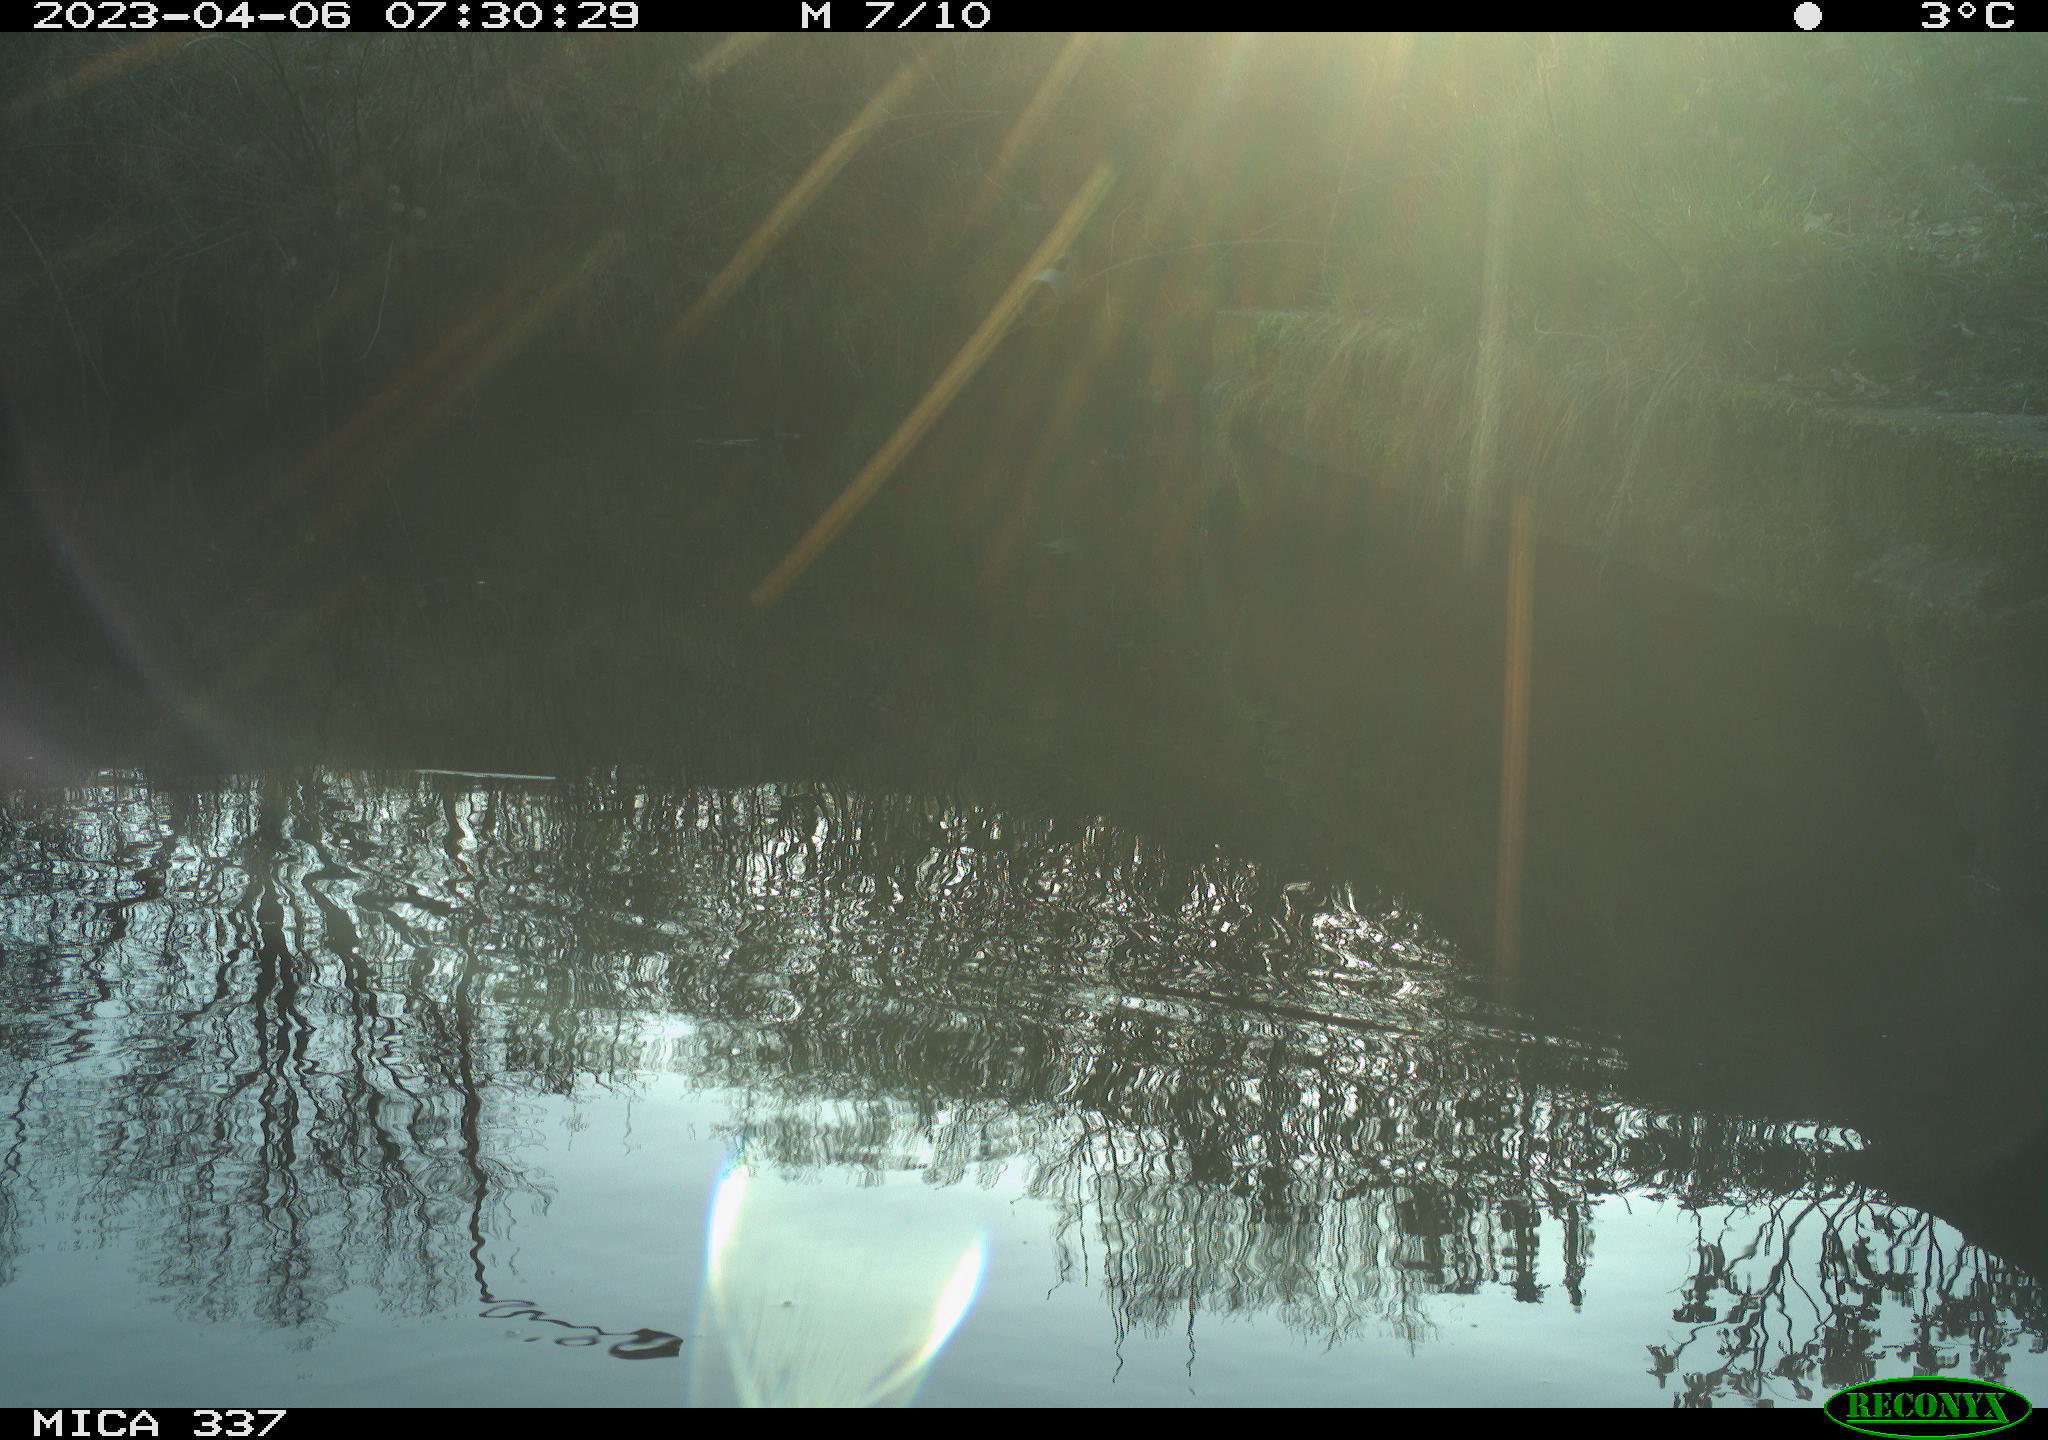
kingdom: Animalia
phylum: Chordata
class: Aves
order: Gruiformes
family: Rallidae
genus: Gallinula
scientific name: Gallinula chloropus
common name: Common moorhen
